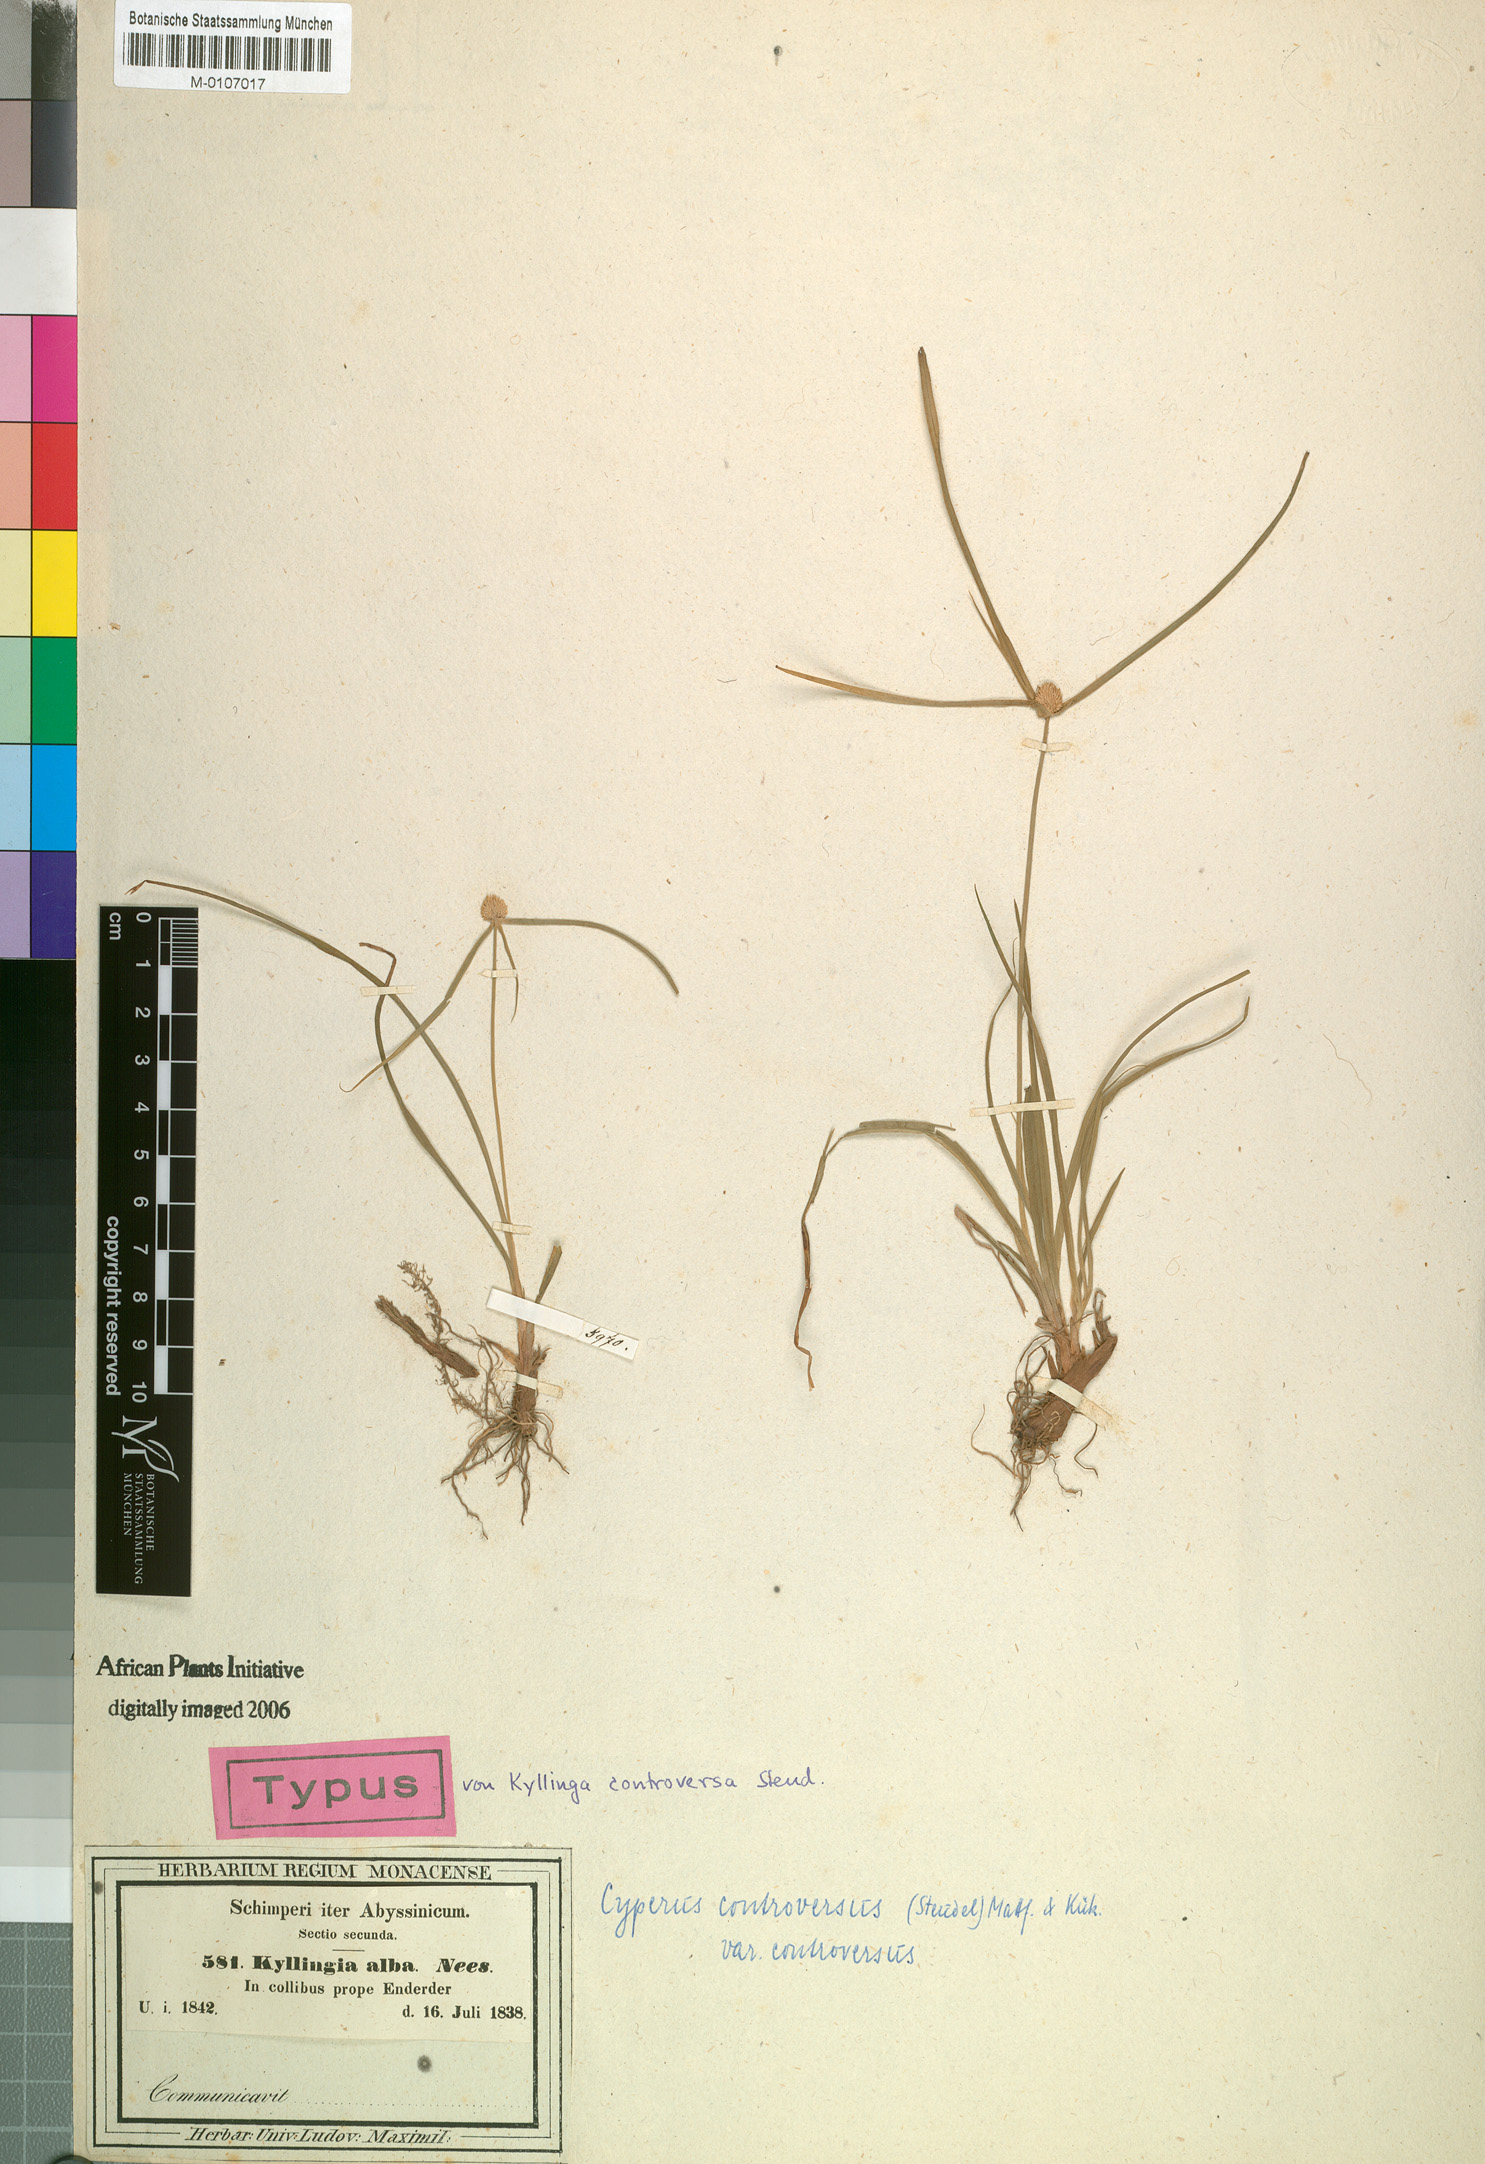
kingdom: Plantae
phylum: Tracheophyta
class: Liliopsida
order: Poales
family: Cyperaceae
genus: Cyperus
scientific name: Cyperus controversus
